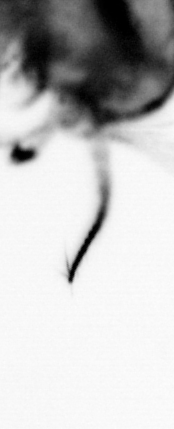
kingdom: Animalia
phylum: Arthropoda
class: Copepoda
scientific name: Copepoda
